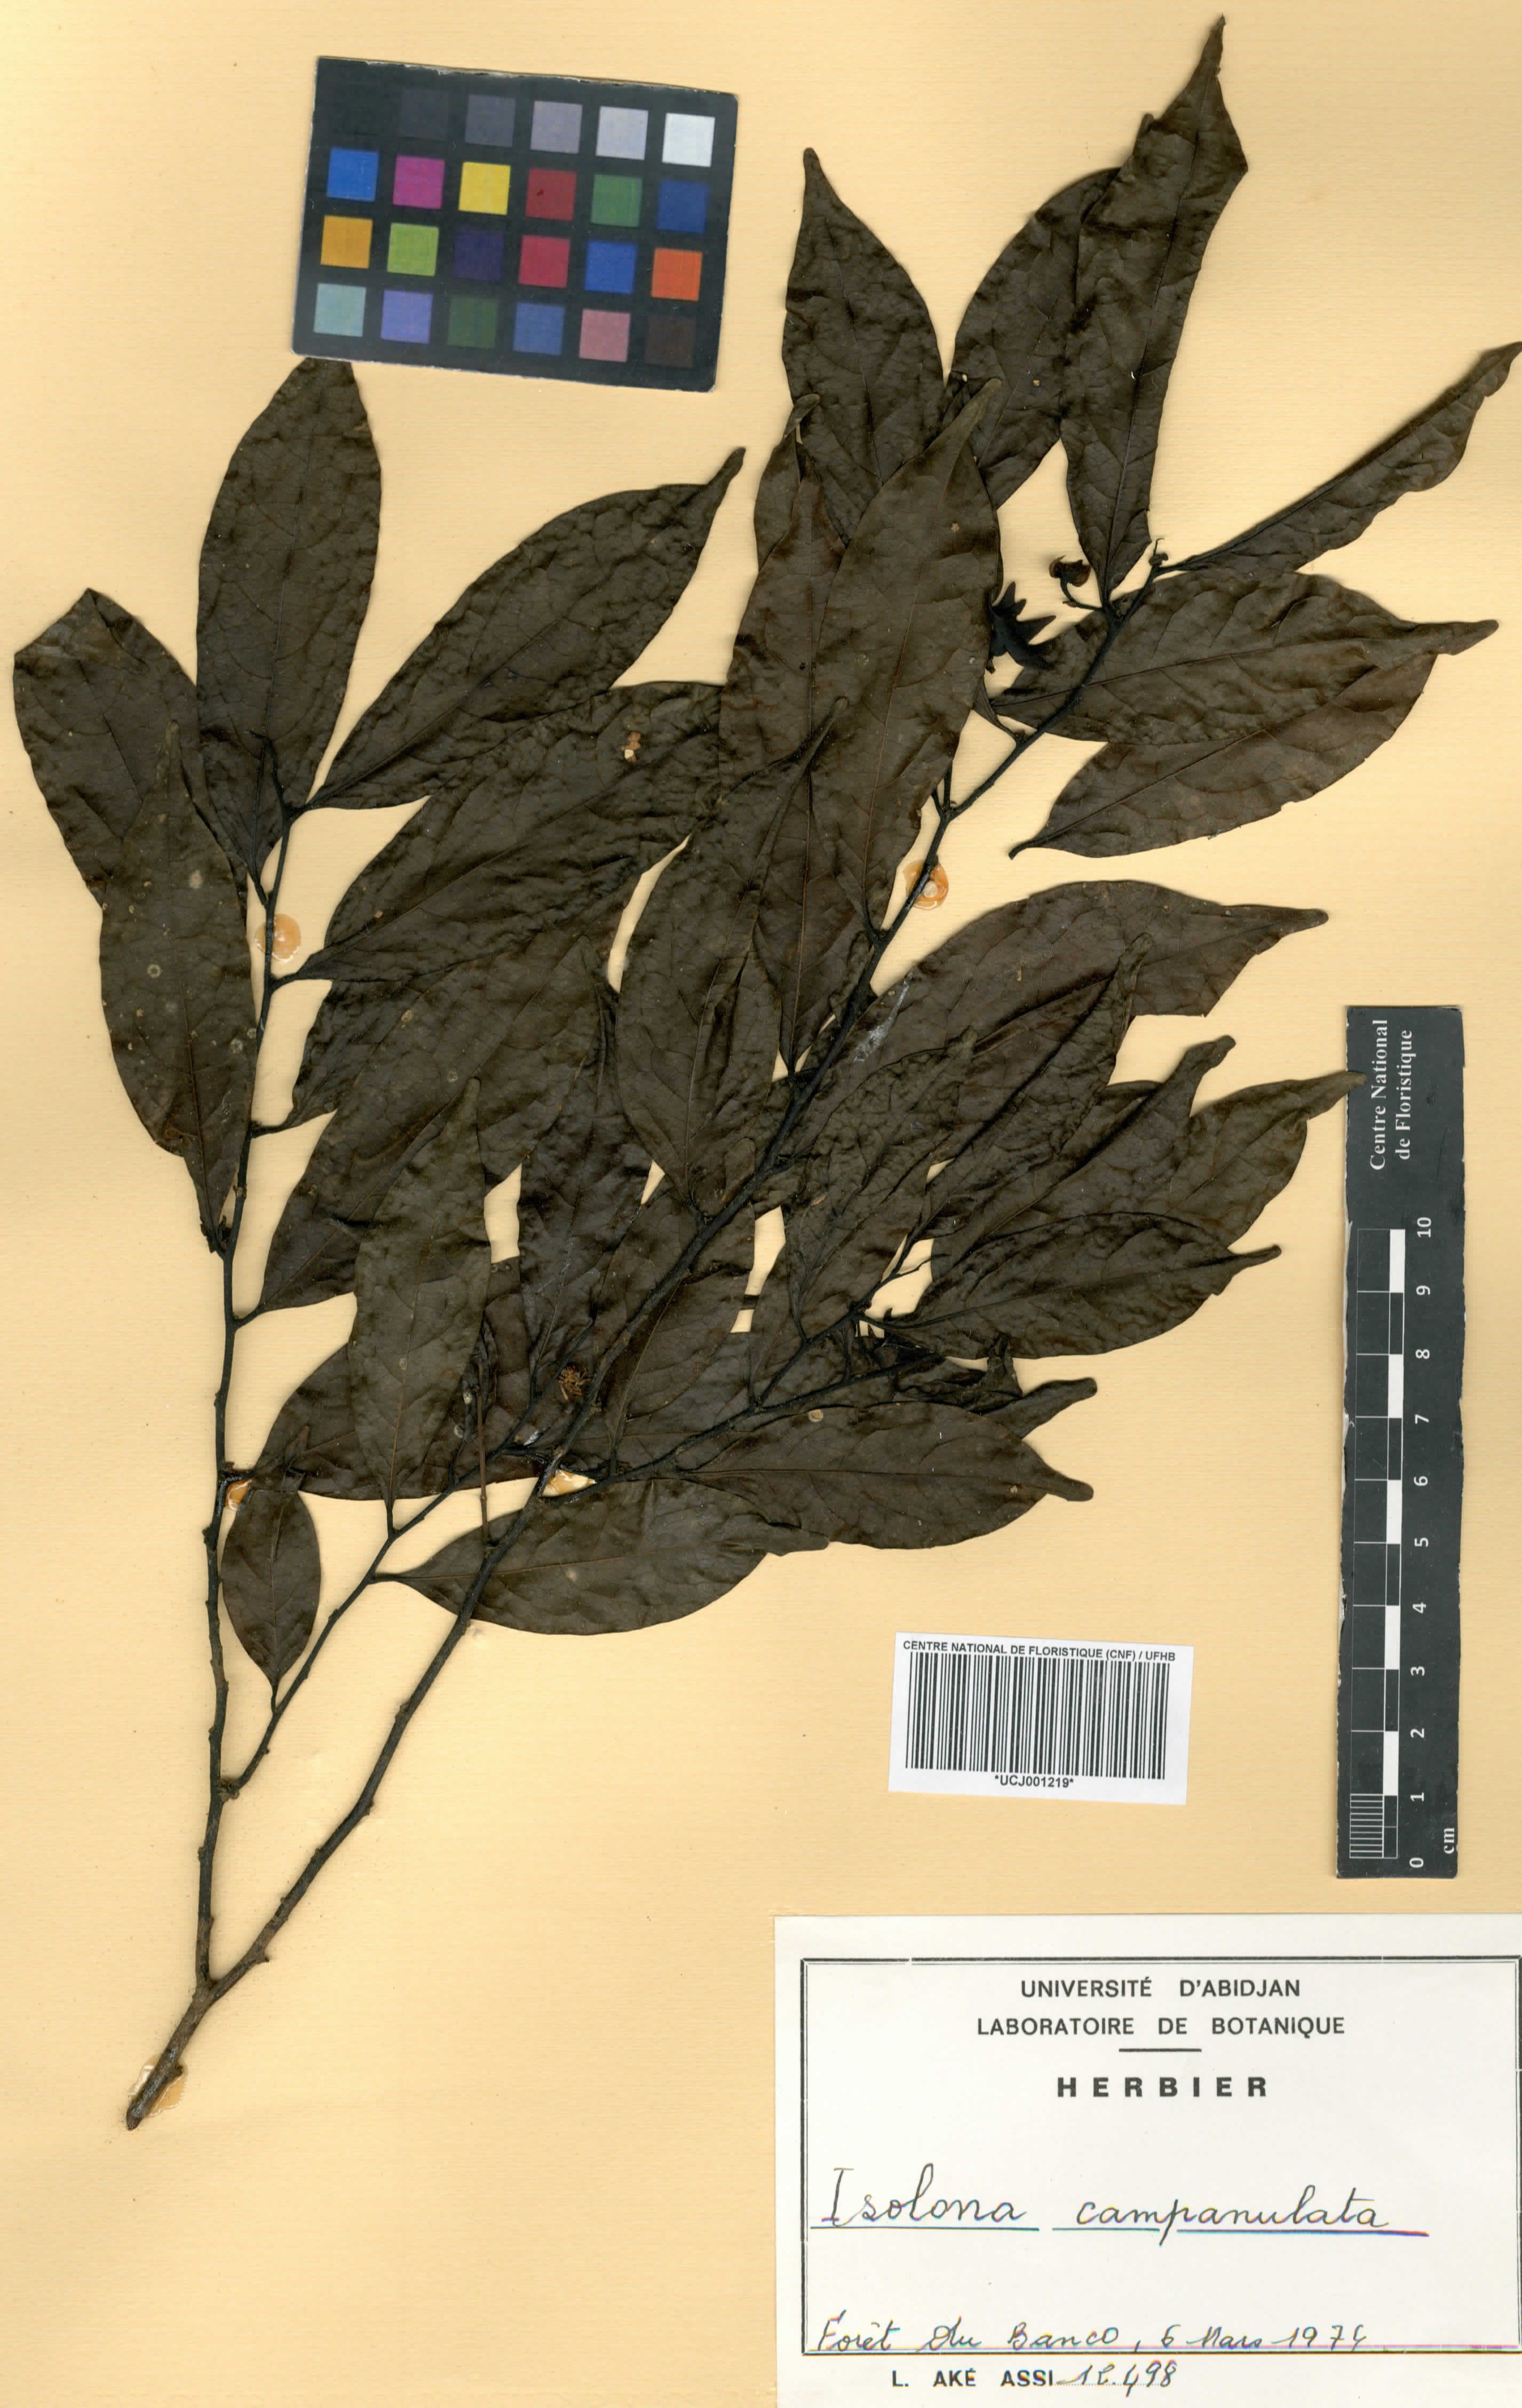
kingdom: Plantae
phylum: Tracheophyta
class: Magnoliopsida
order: Magnoliales
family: Annonaceae
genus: Isolona
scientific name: Isolona campanulata
